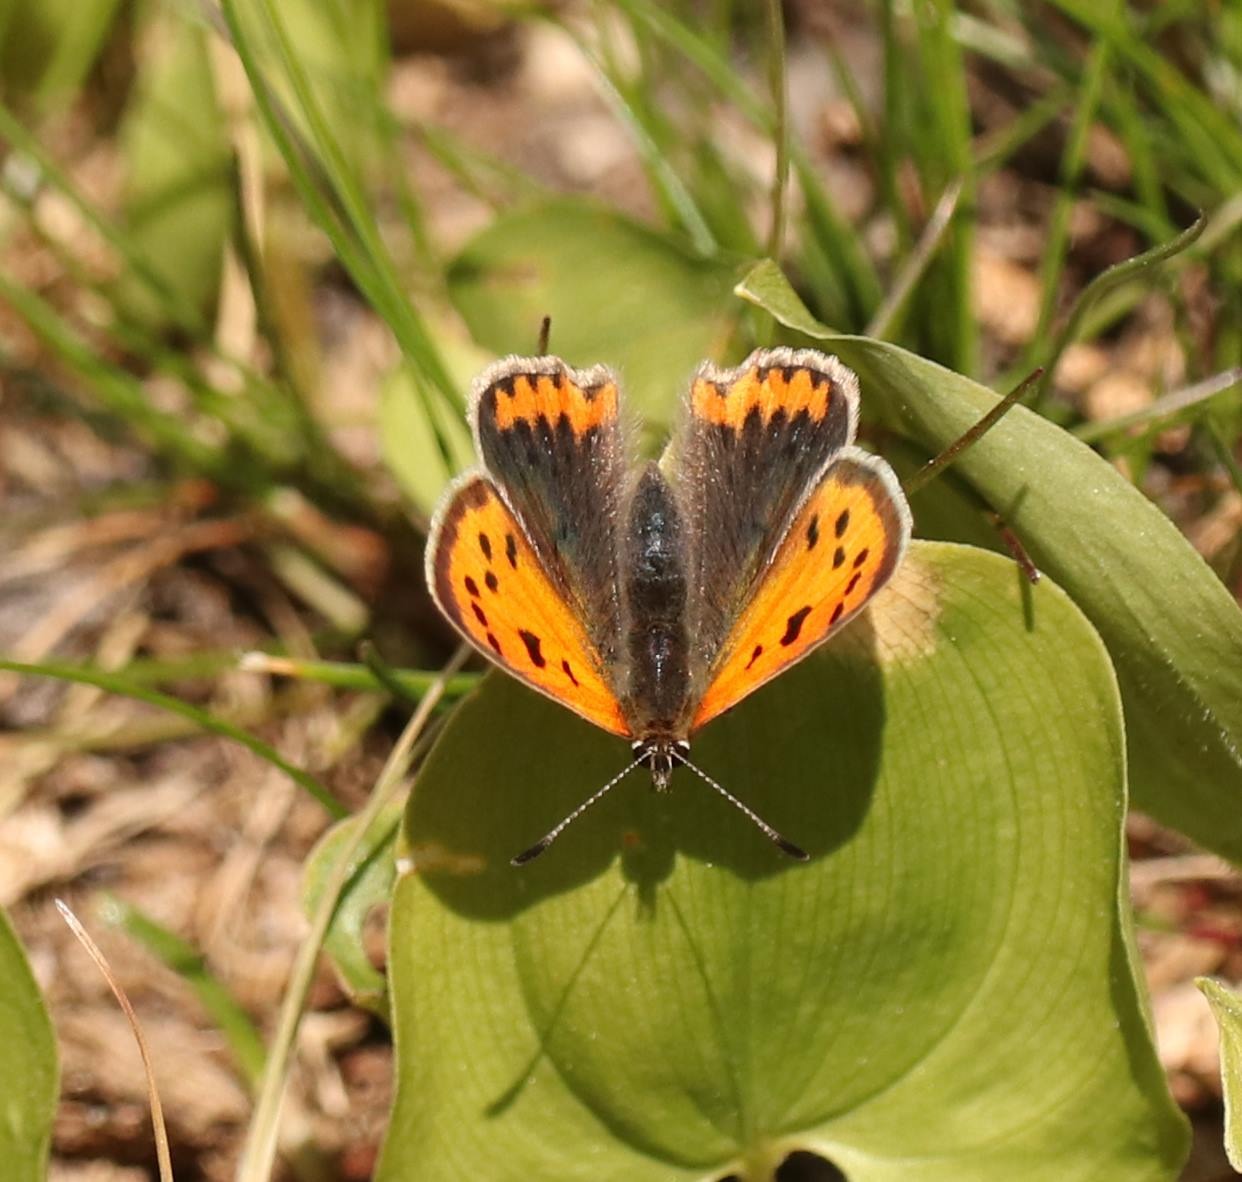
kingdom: Animalia
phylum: Arthropoda
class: Insecta
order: Lepidoptera
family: Lycaenidae
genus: Lycaena
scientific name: Lycaena phlaeas
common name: Lille ildfugl
